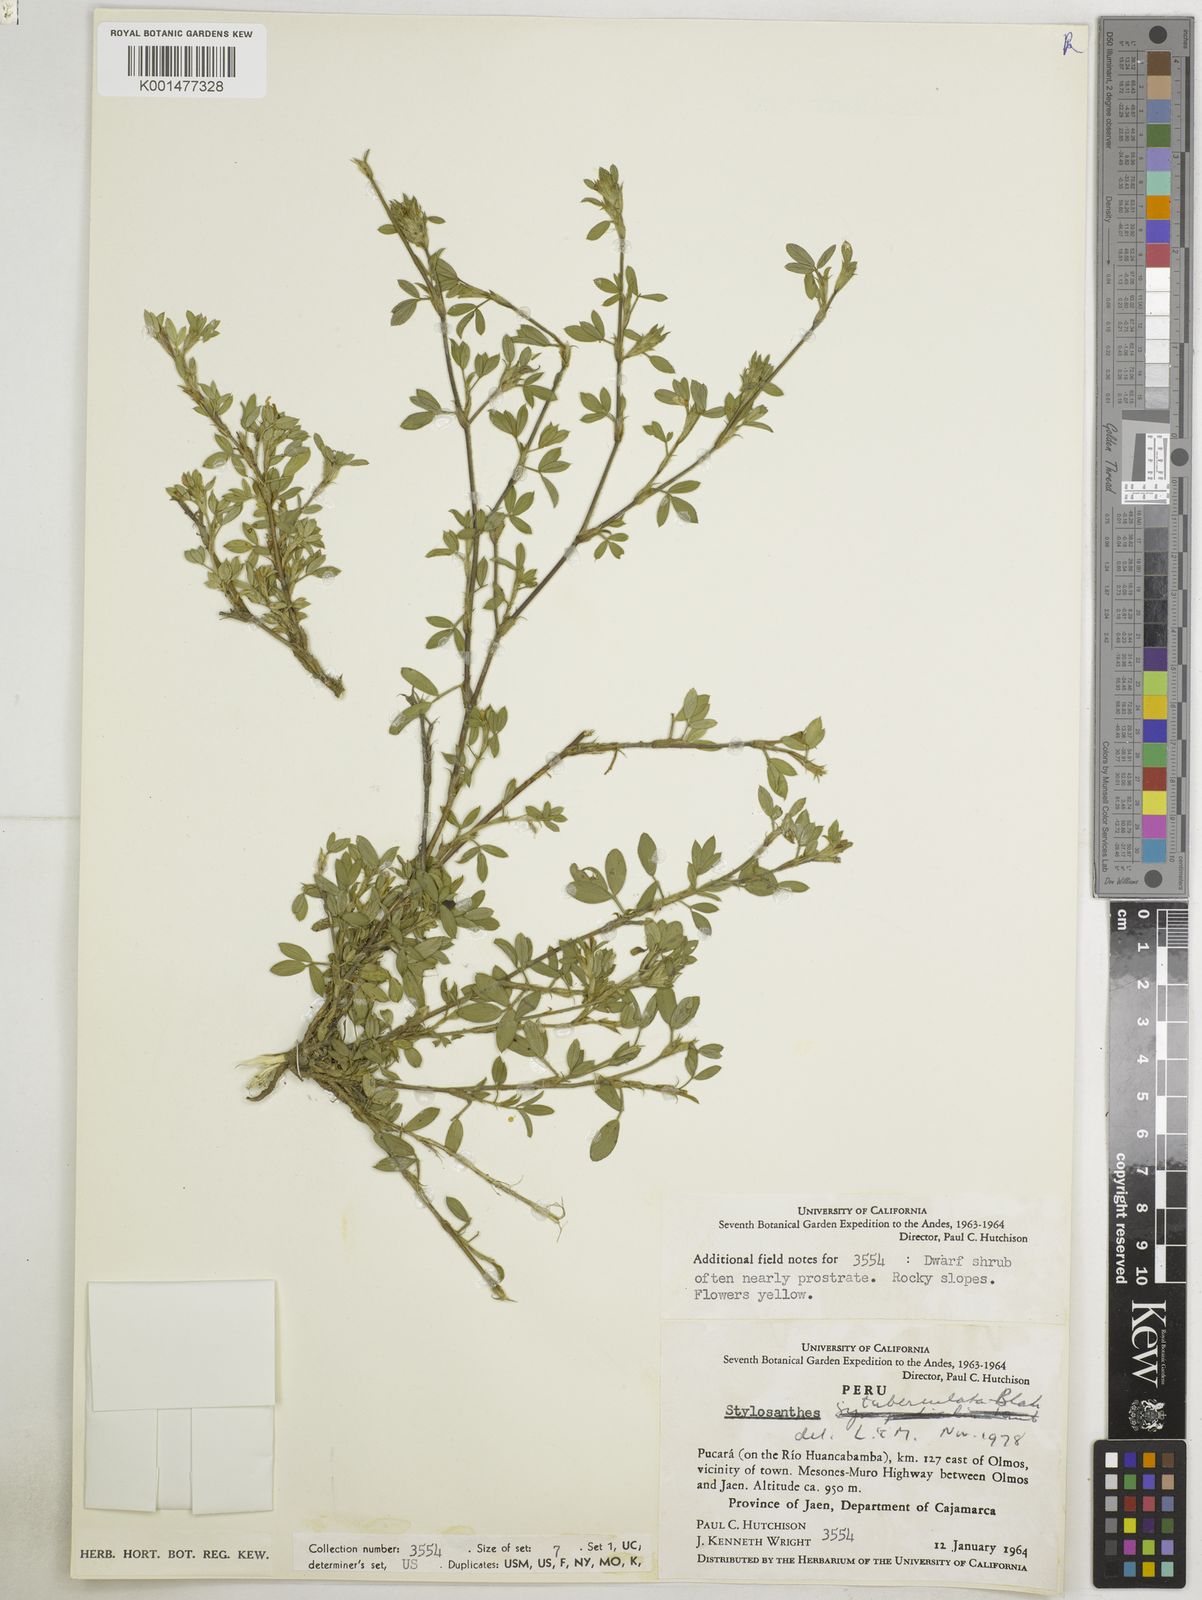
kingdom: Plantae
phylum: Tracheophyta
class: Magnoliopsida
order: Fabales
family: Fabaceae
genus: Stylosanthes
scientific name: Stylosanthes tuberculata
